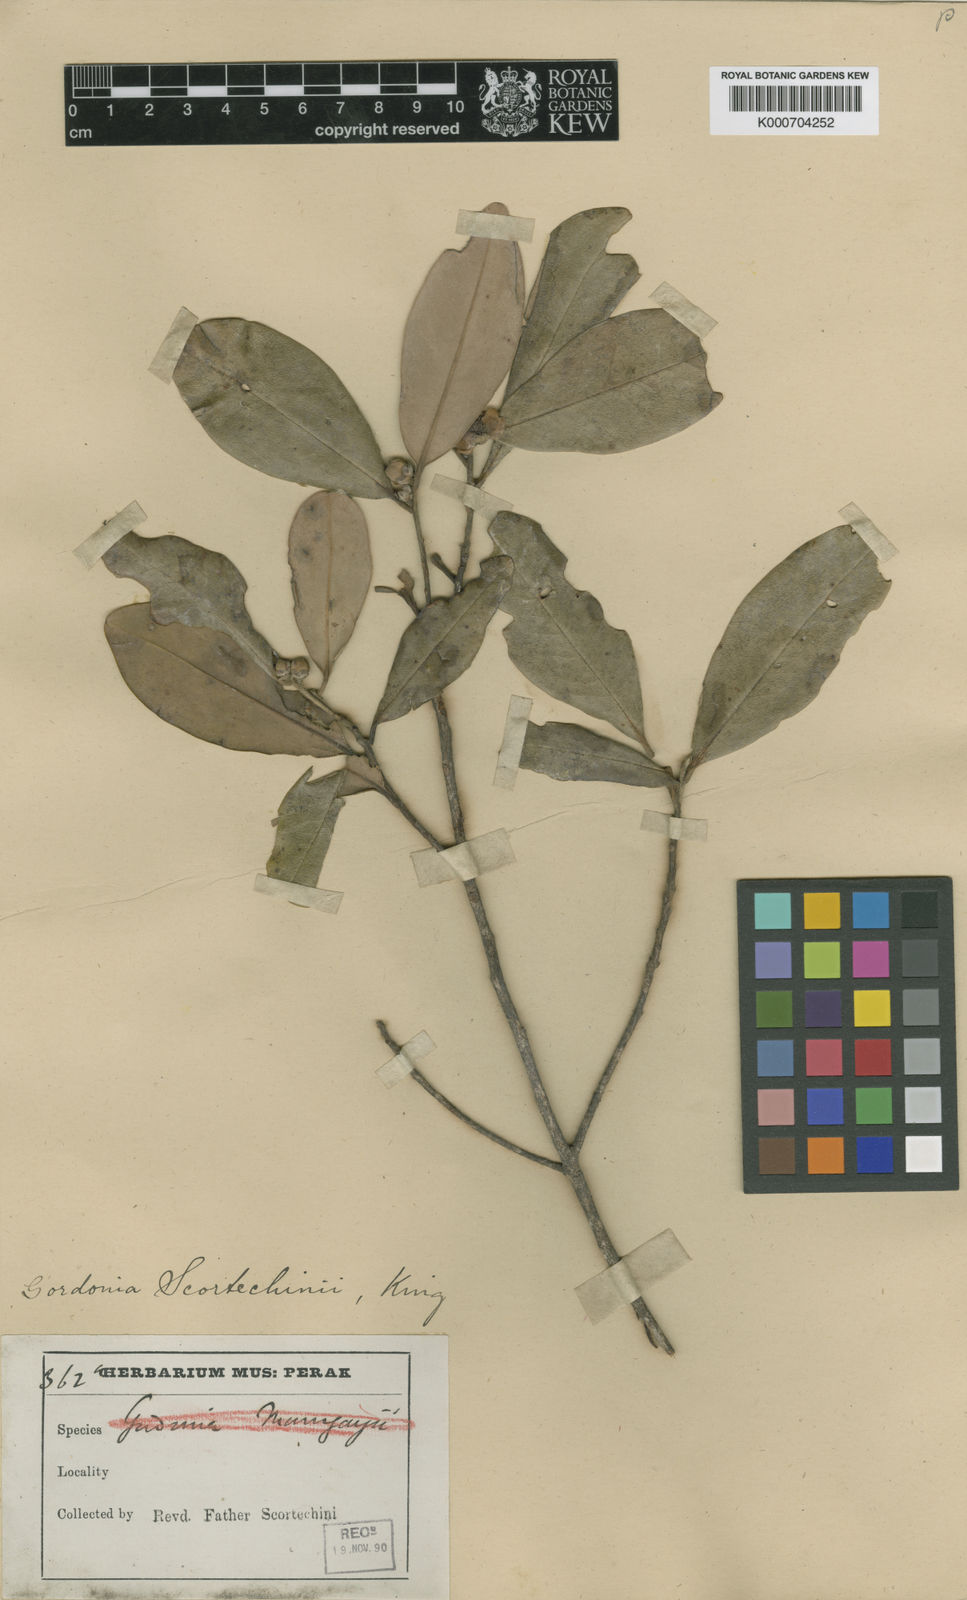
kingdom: Plantae
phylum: Tracheophyta
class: Magnoliopsida
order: Ericales
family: Theaceae
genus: Polyspora
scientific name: Polyspora scortechinii
